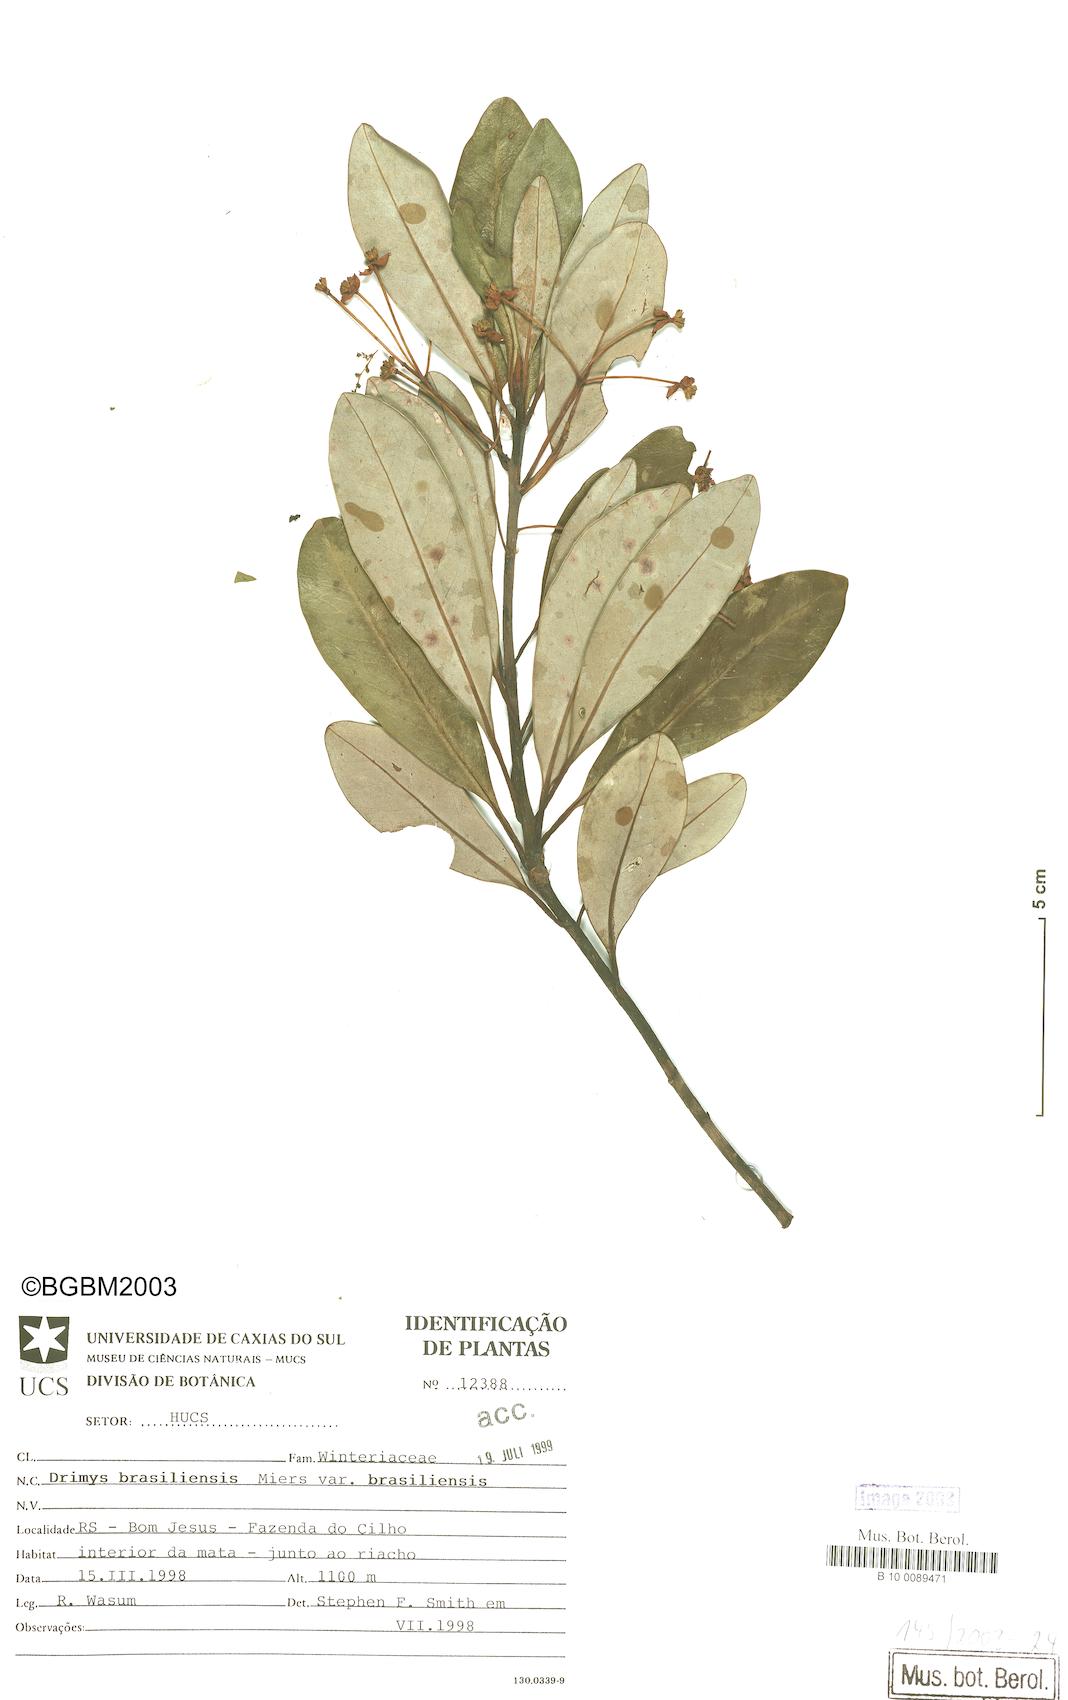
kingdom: Plantae
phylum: Tracheophyta
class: Magnoliopsida
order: Canellales
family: Winteraceae
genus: Drimys
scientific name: Drimys brasiliensis
